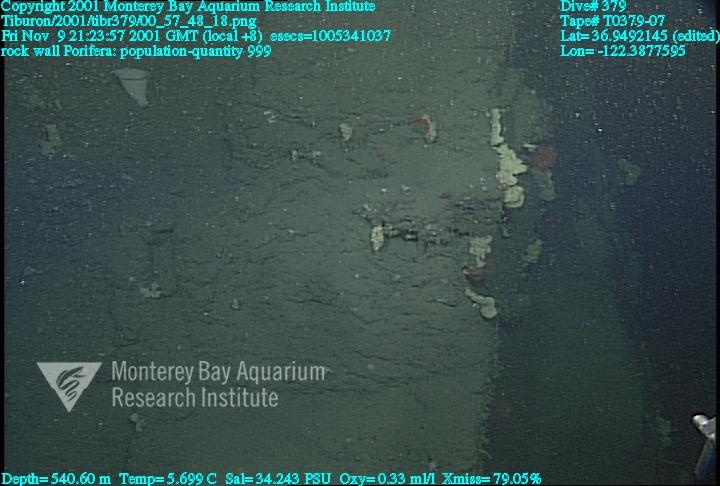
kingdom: Animalia
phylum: Porifera
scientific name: Porifera
